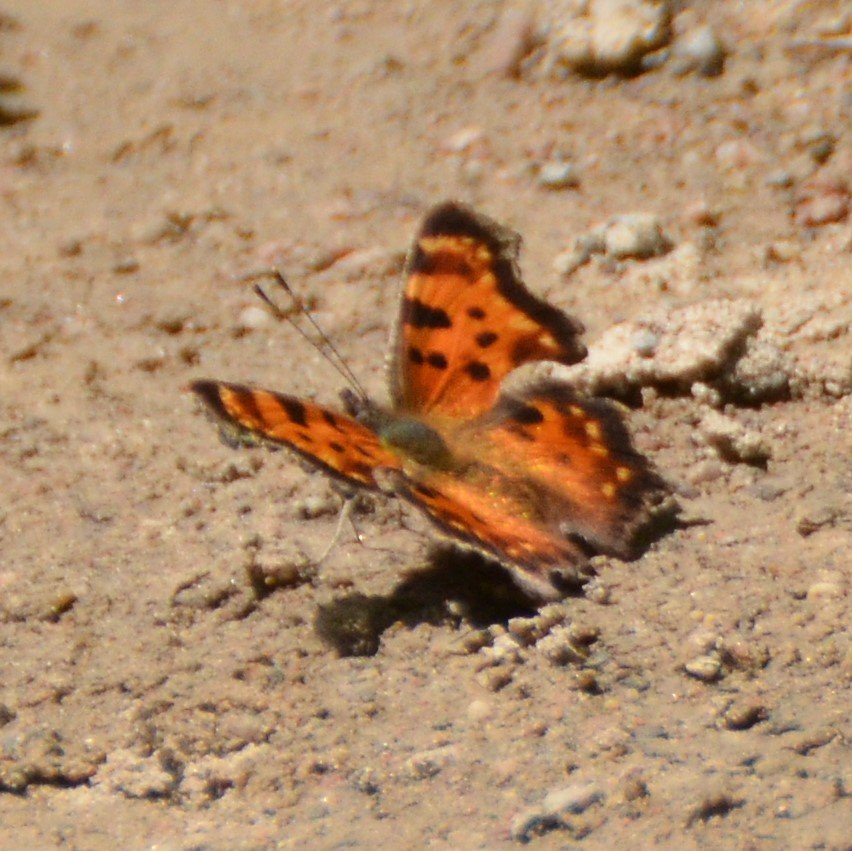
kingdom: Animalia
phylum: Arthropoda
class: Insecta
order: Lepidoptera
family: Nymphalidae
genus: Polygonia
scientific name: Polygonia faunus
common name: Green Comma
